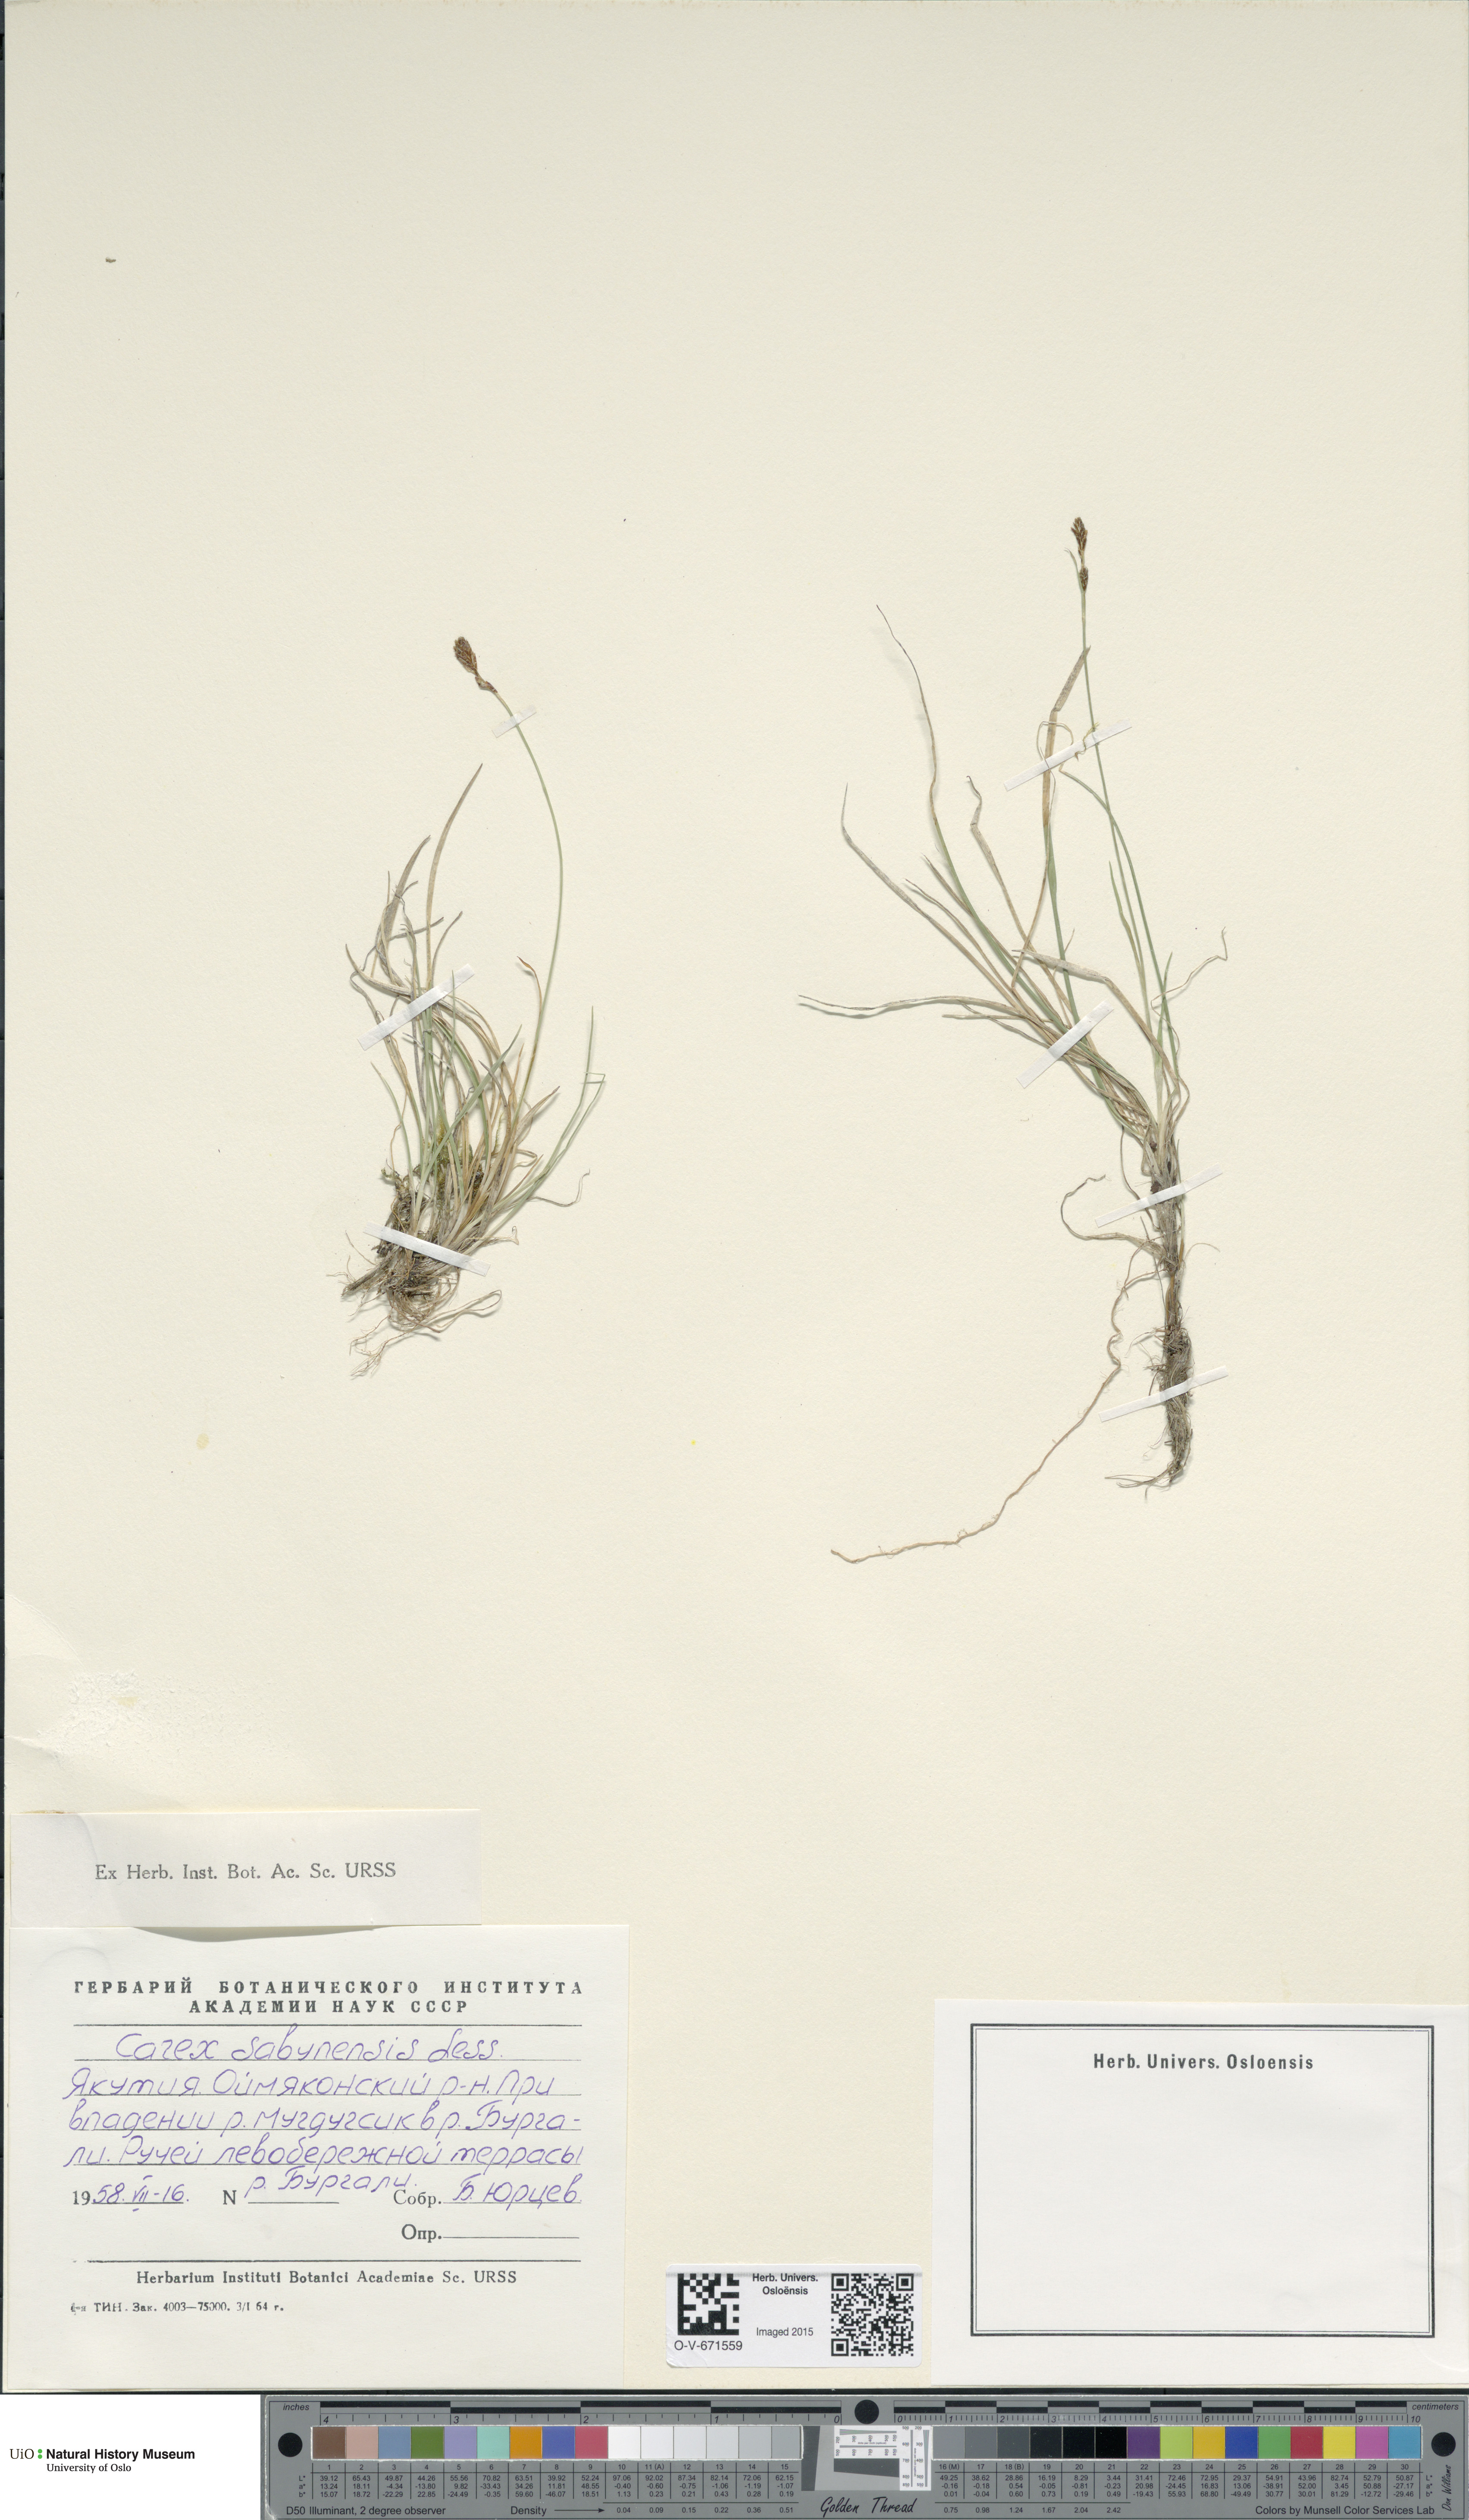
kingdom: Plantae
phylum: Tracheophyta
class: Liliopsida
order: Poales
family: Cyperaceae
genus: Carex
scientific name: Carex umbrosa
